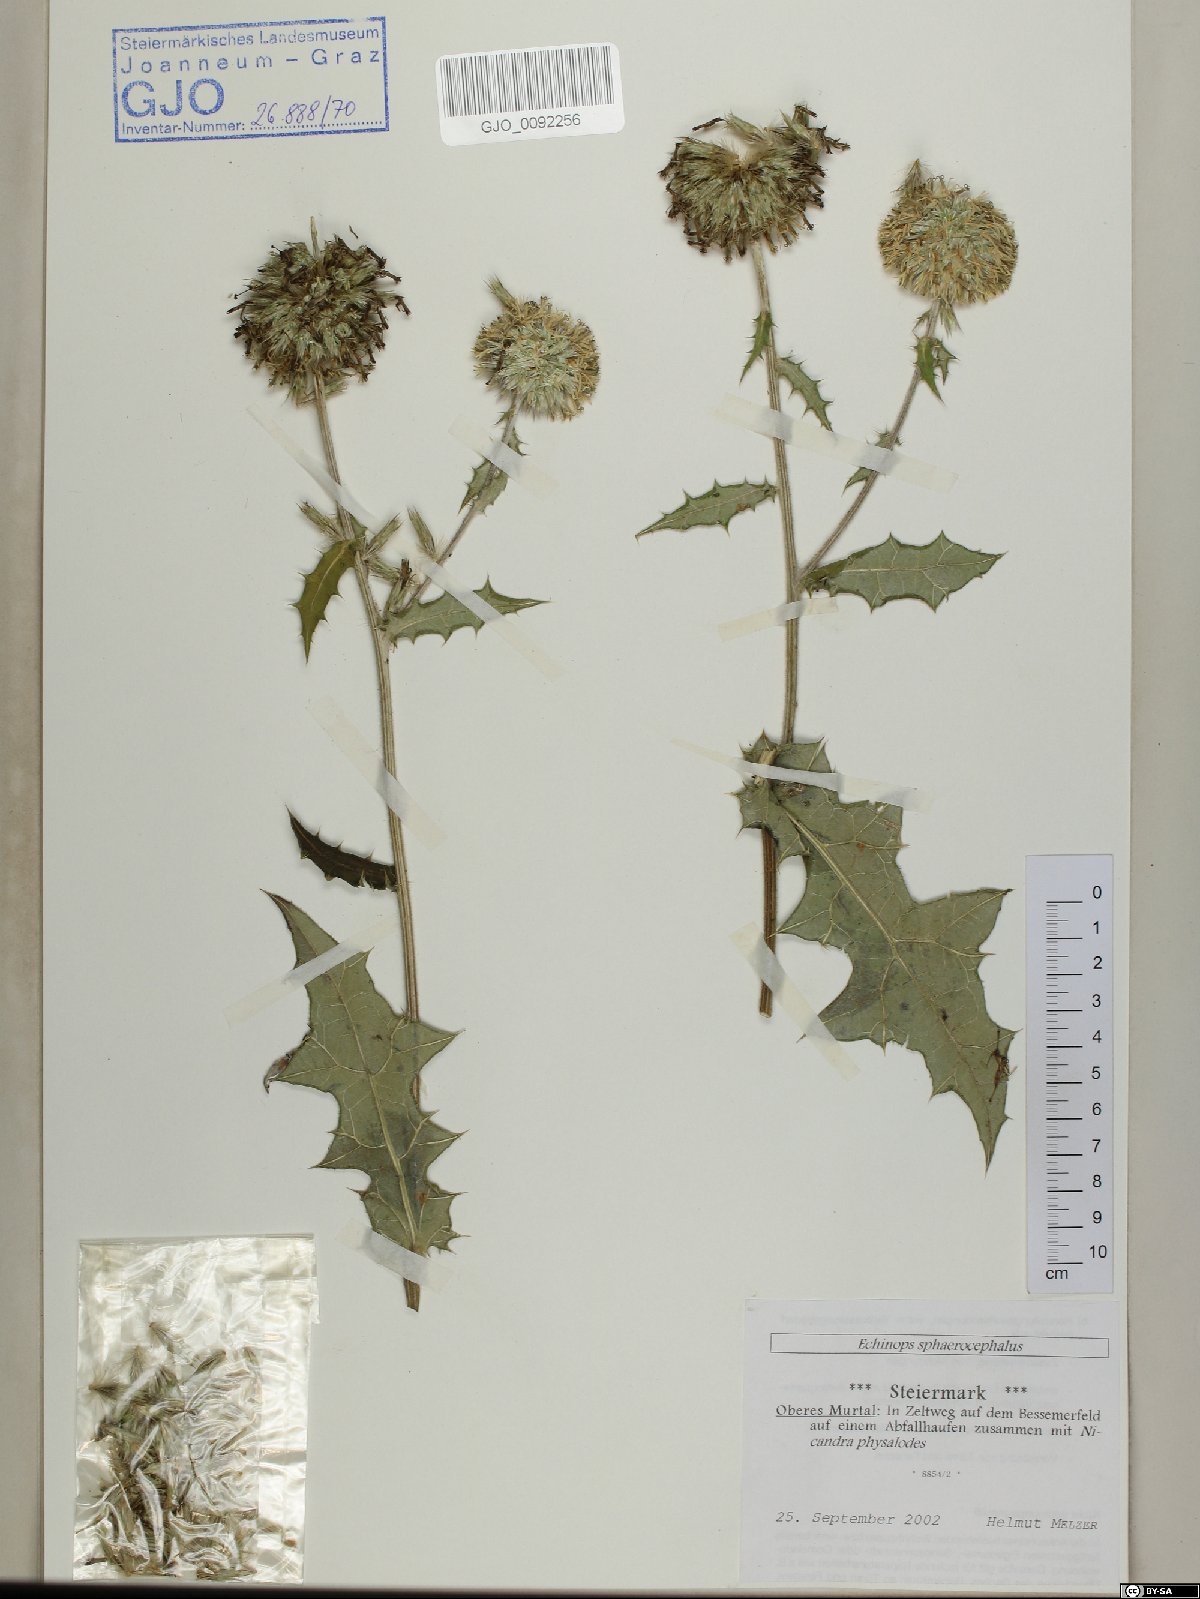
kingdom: Plantae
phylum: Tracheophyta
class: Magnoliopsida
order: Asterales
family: Asteraceae
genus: Echinops
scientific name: Echinops sphaerocephalus
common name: Glandular globe-thistle
